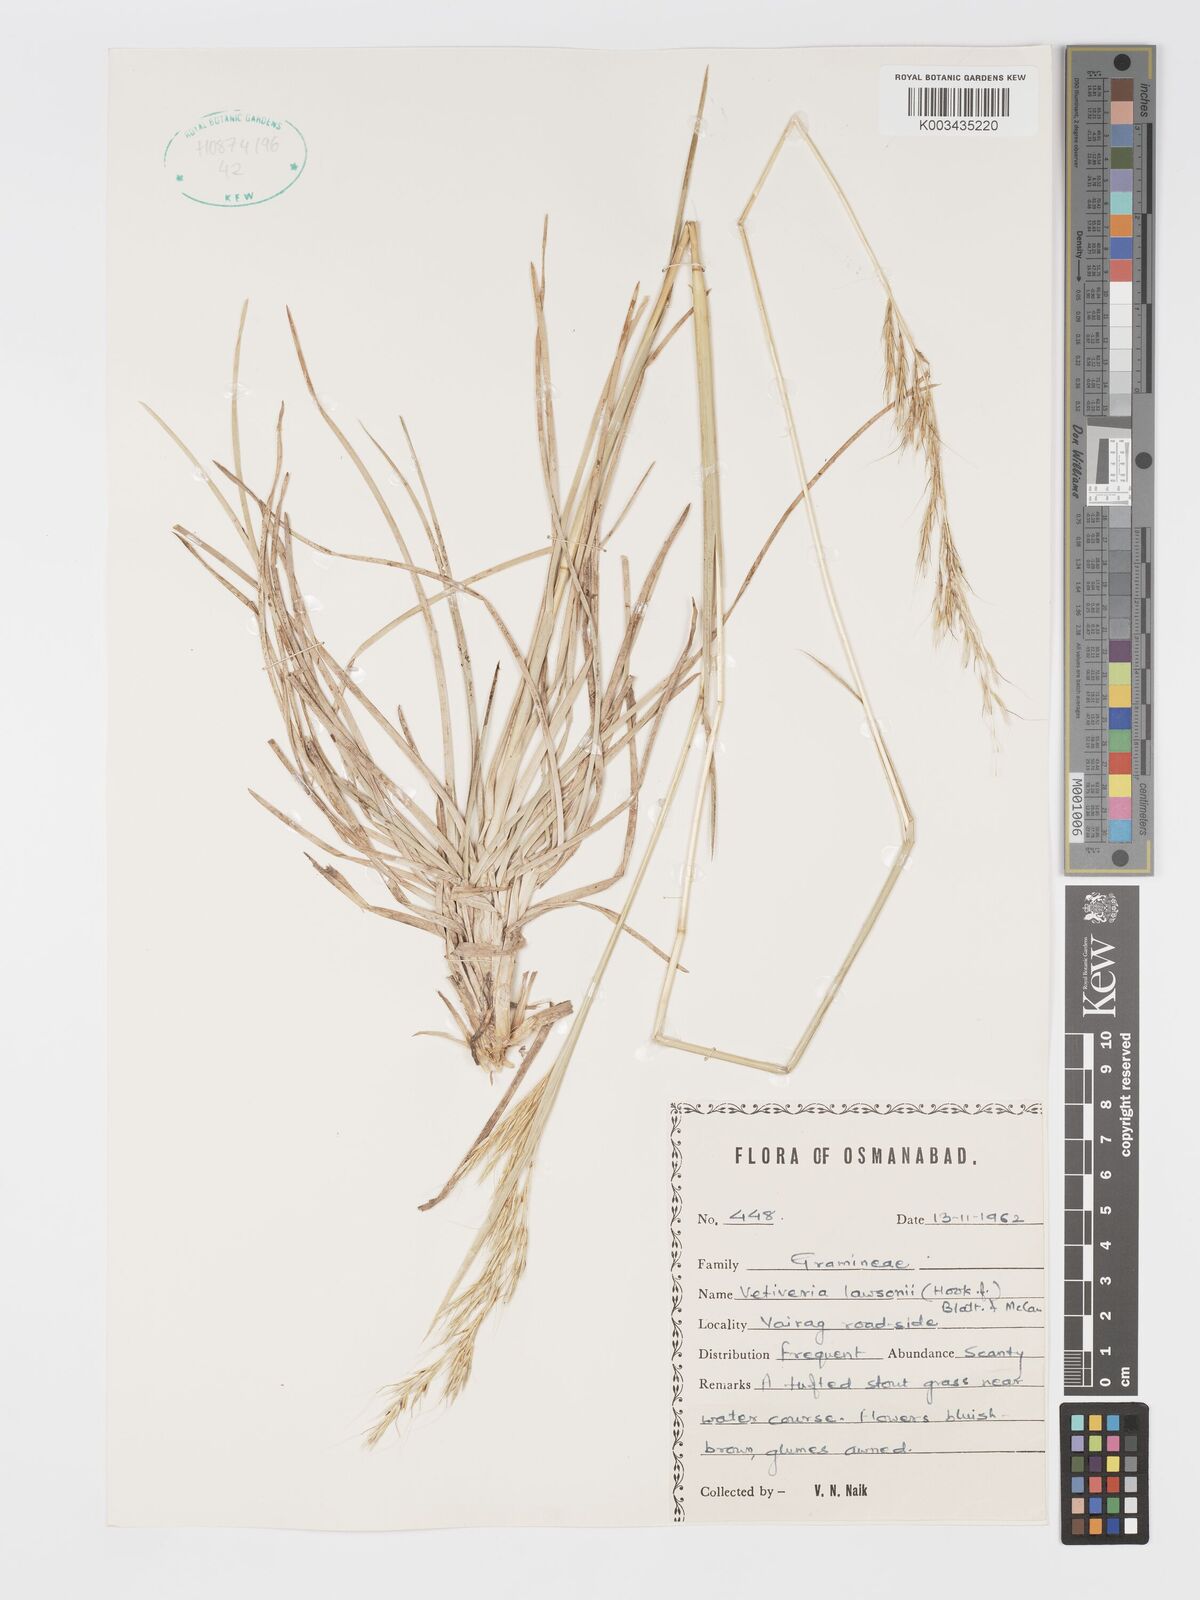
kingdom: Plantae
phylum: Tracheophyta
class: Liliopsida
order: Poales
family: Poaceae
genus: Chrysopogon
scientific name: Chrysopogon lawsonii
